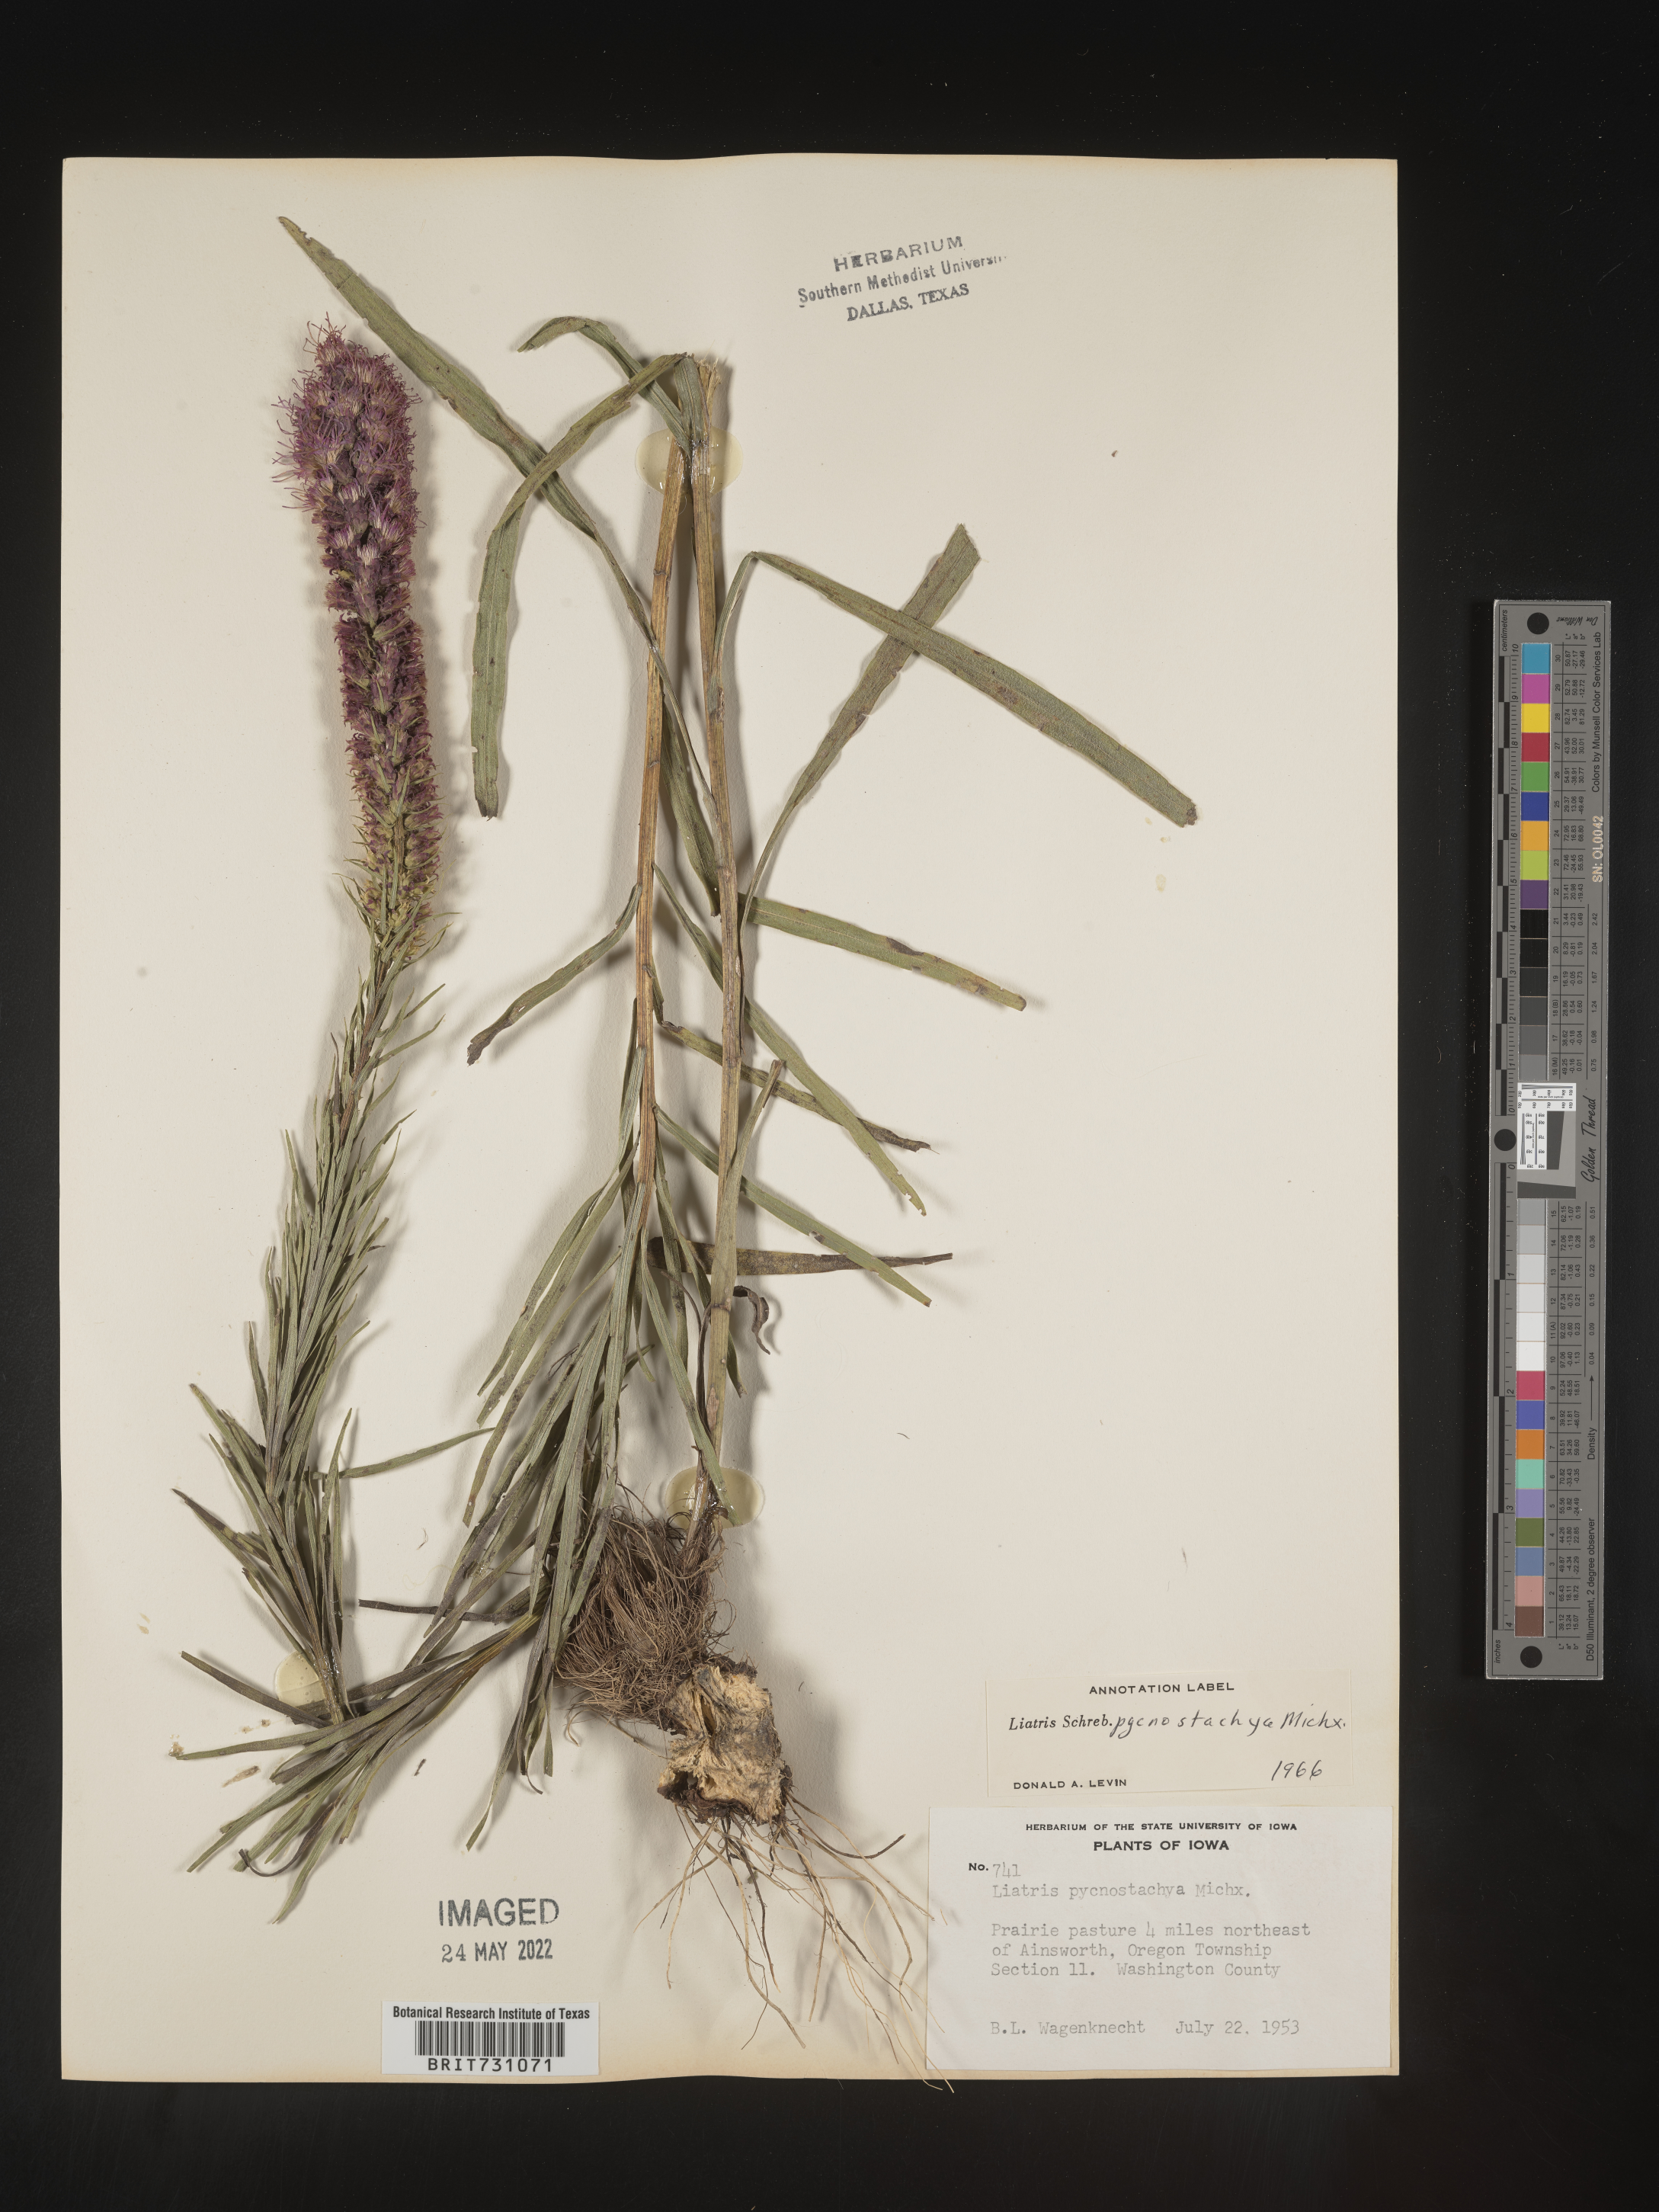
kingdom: Plantae
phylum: Tracheophyta
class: Magnoliopsida
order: Asterales
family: Asteraceae
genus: Liatris
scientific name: Liatris pycnostachya
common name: Cattail gayfeather
